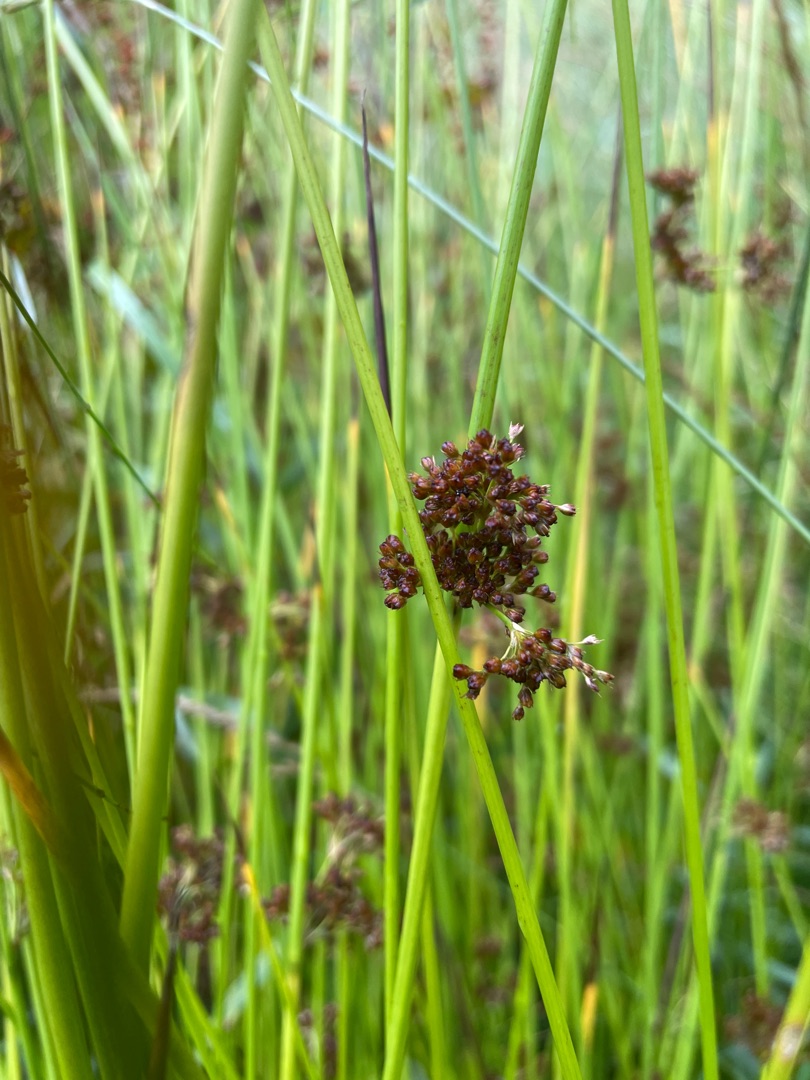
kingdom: Plantae
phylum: Tracheophyta
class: Liliopsida
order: Poales
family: Juncaceae
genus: Juncus
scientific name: Juncus effusus
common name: Lyse-siv
